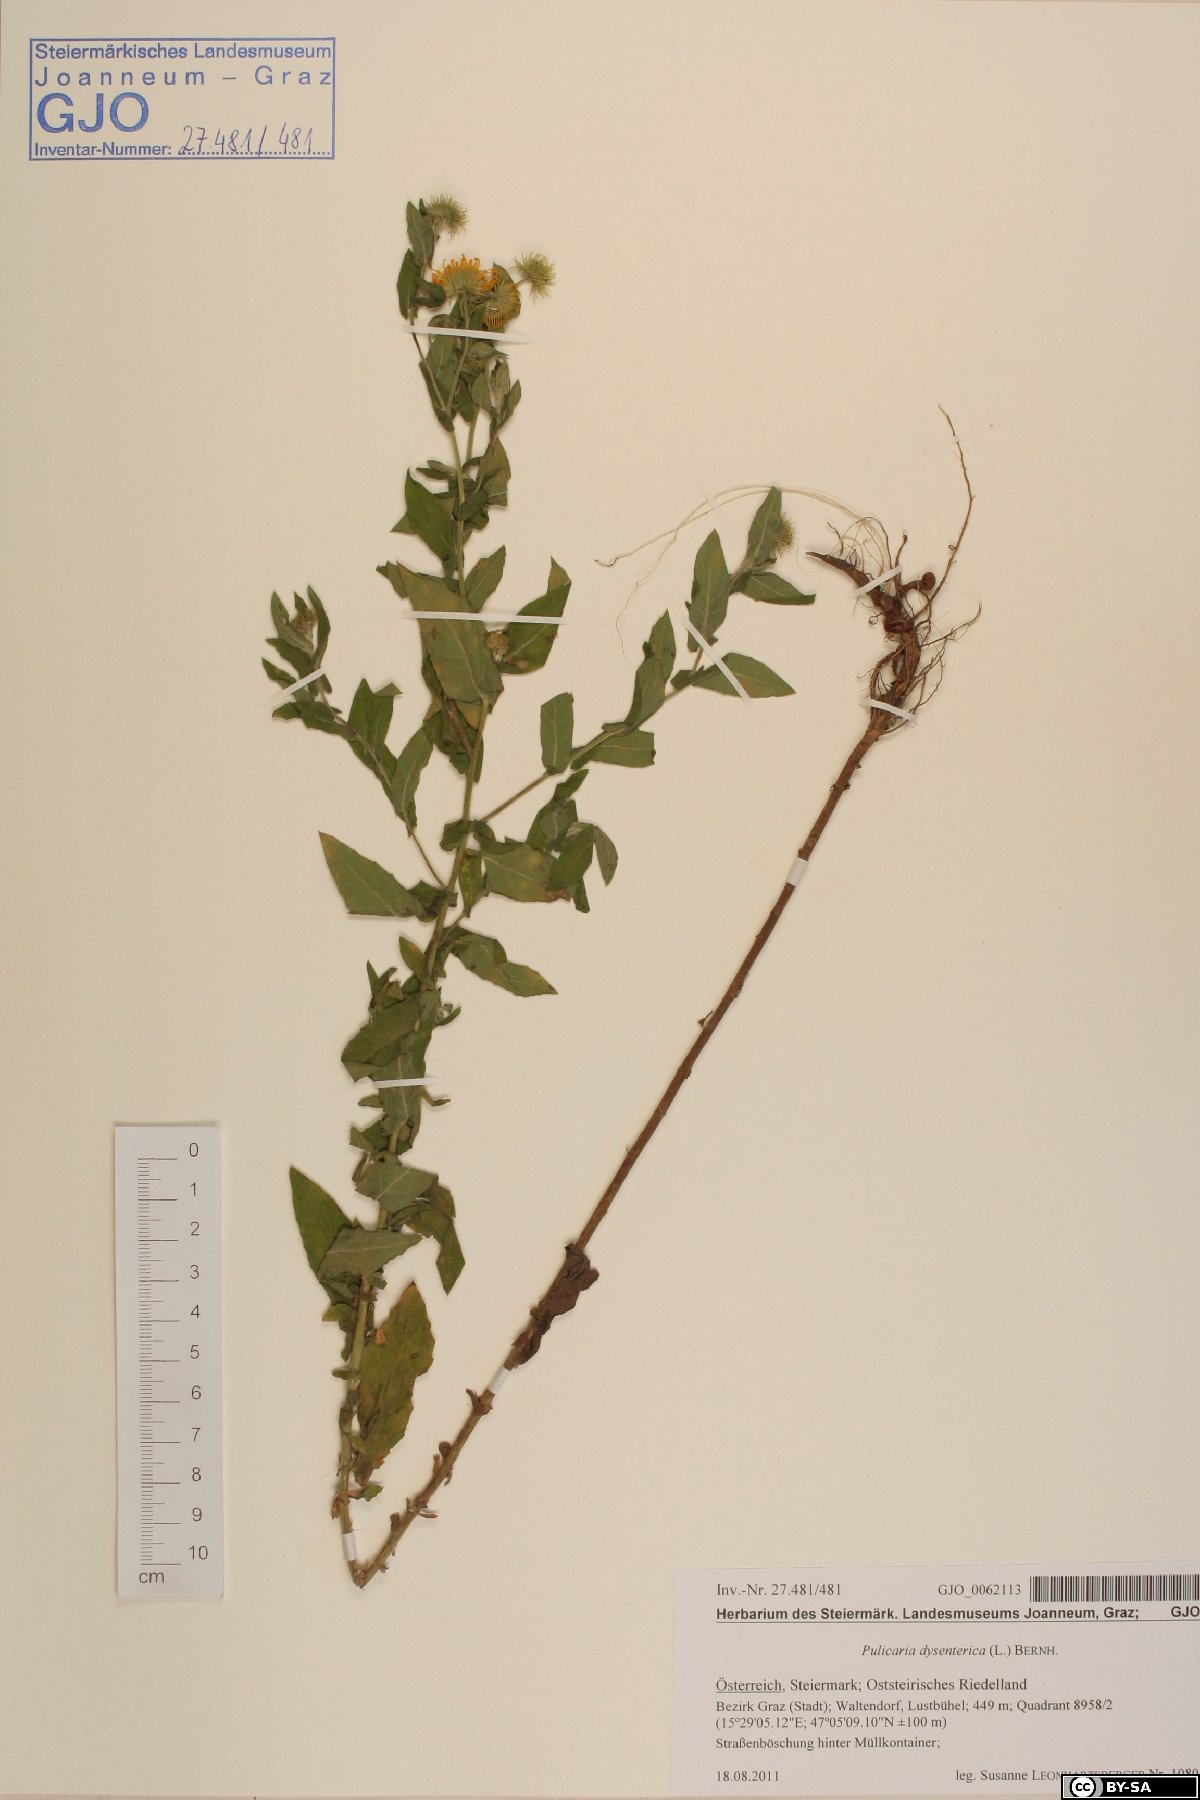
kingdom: Plantae
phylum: Tracheophyta
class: Magnoliopsida
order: Asterales
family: Asteraceae
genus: Pulicaria
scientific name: Pulicaria dysenterica
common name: Common fleabane
